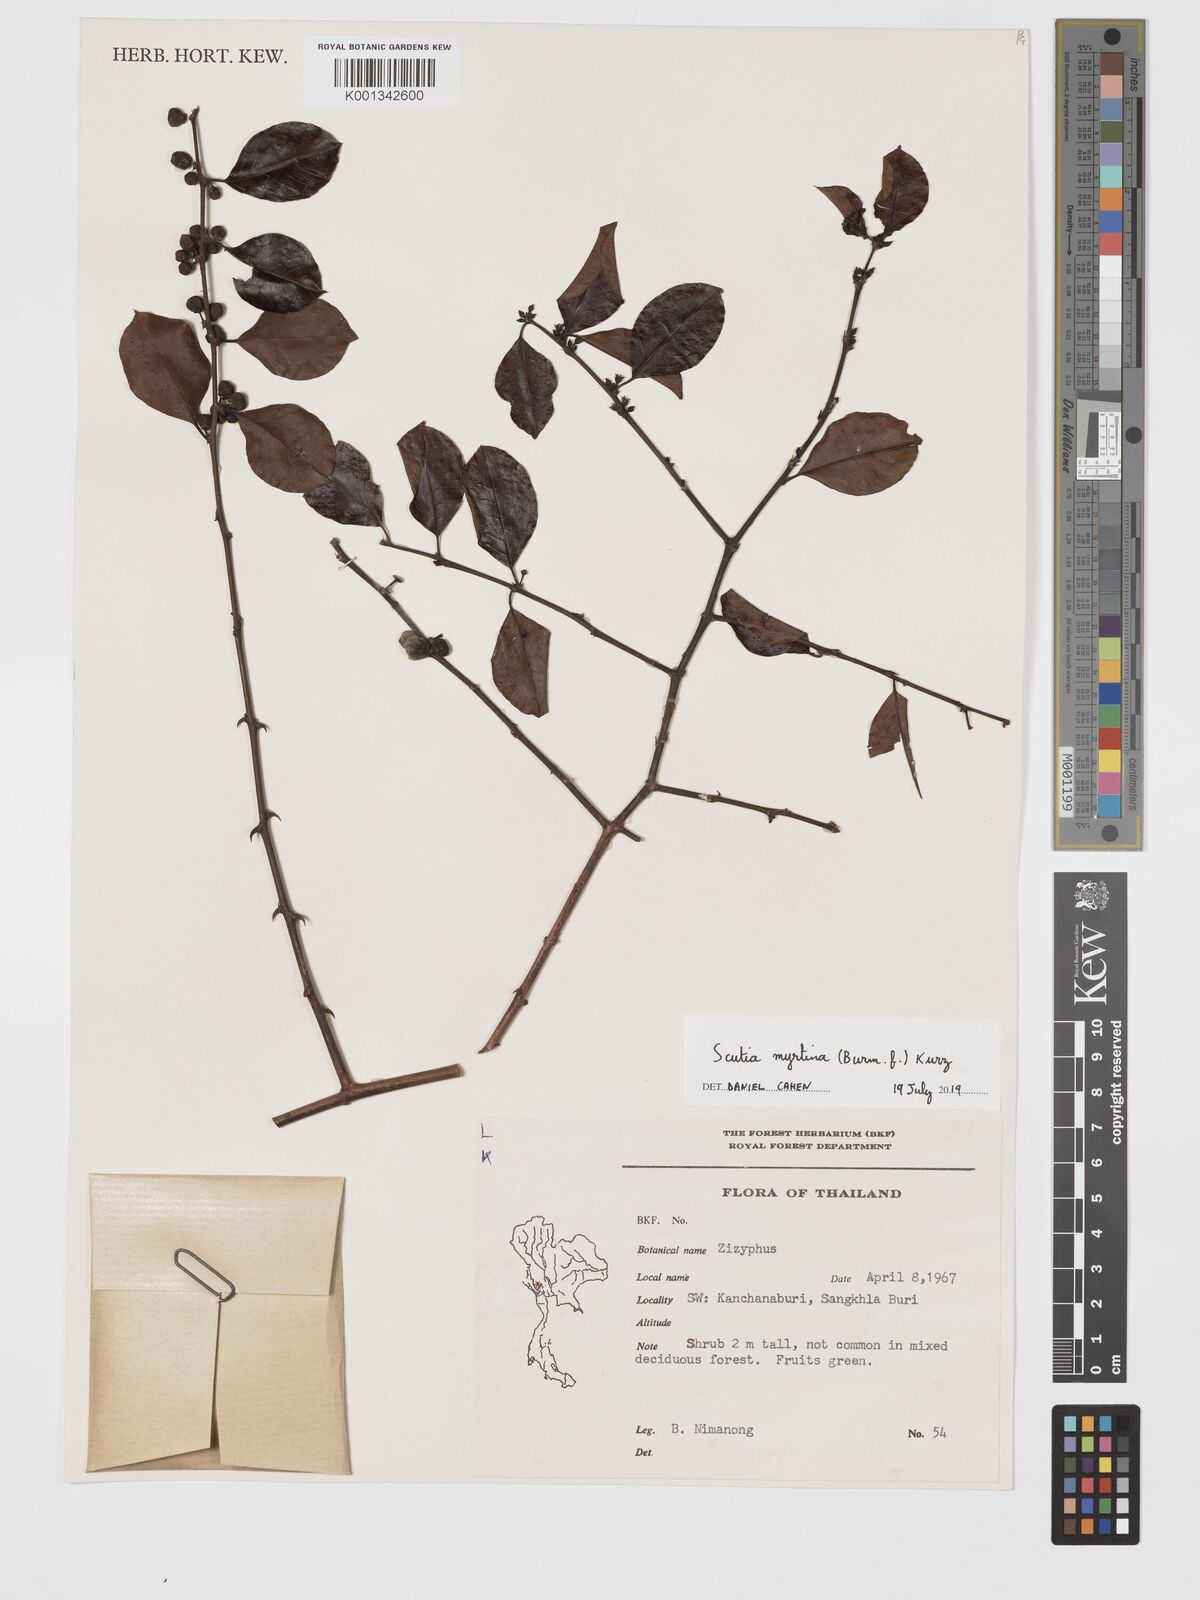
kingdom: Plantae
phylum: Tracheophyta
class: Magnoliopsida
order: Rosales
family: Rhamnaceae
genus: Scutia
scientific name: Scutia myrtina
